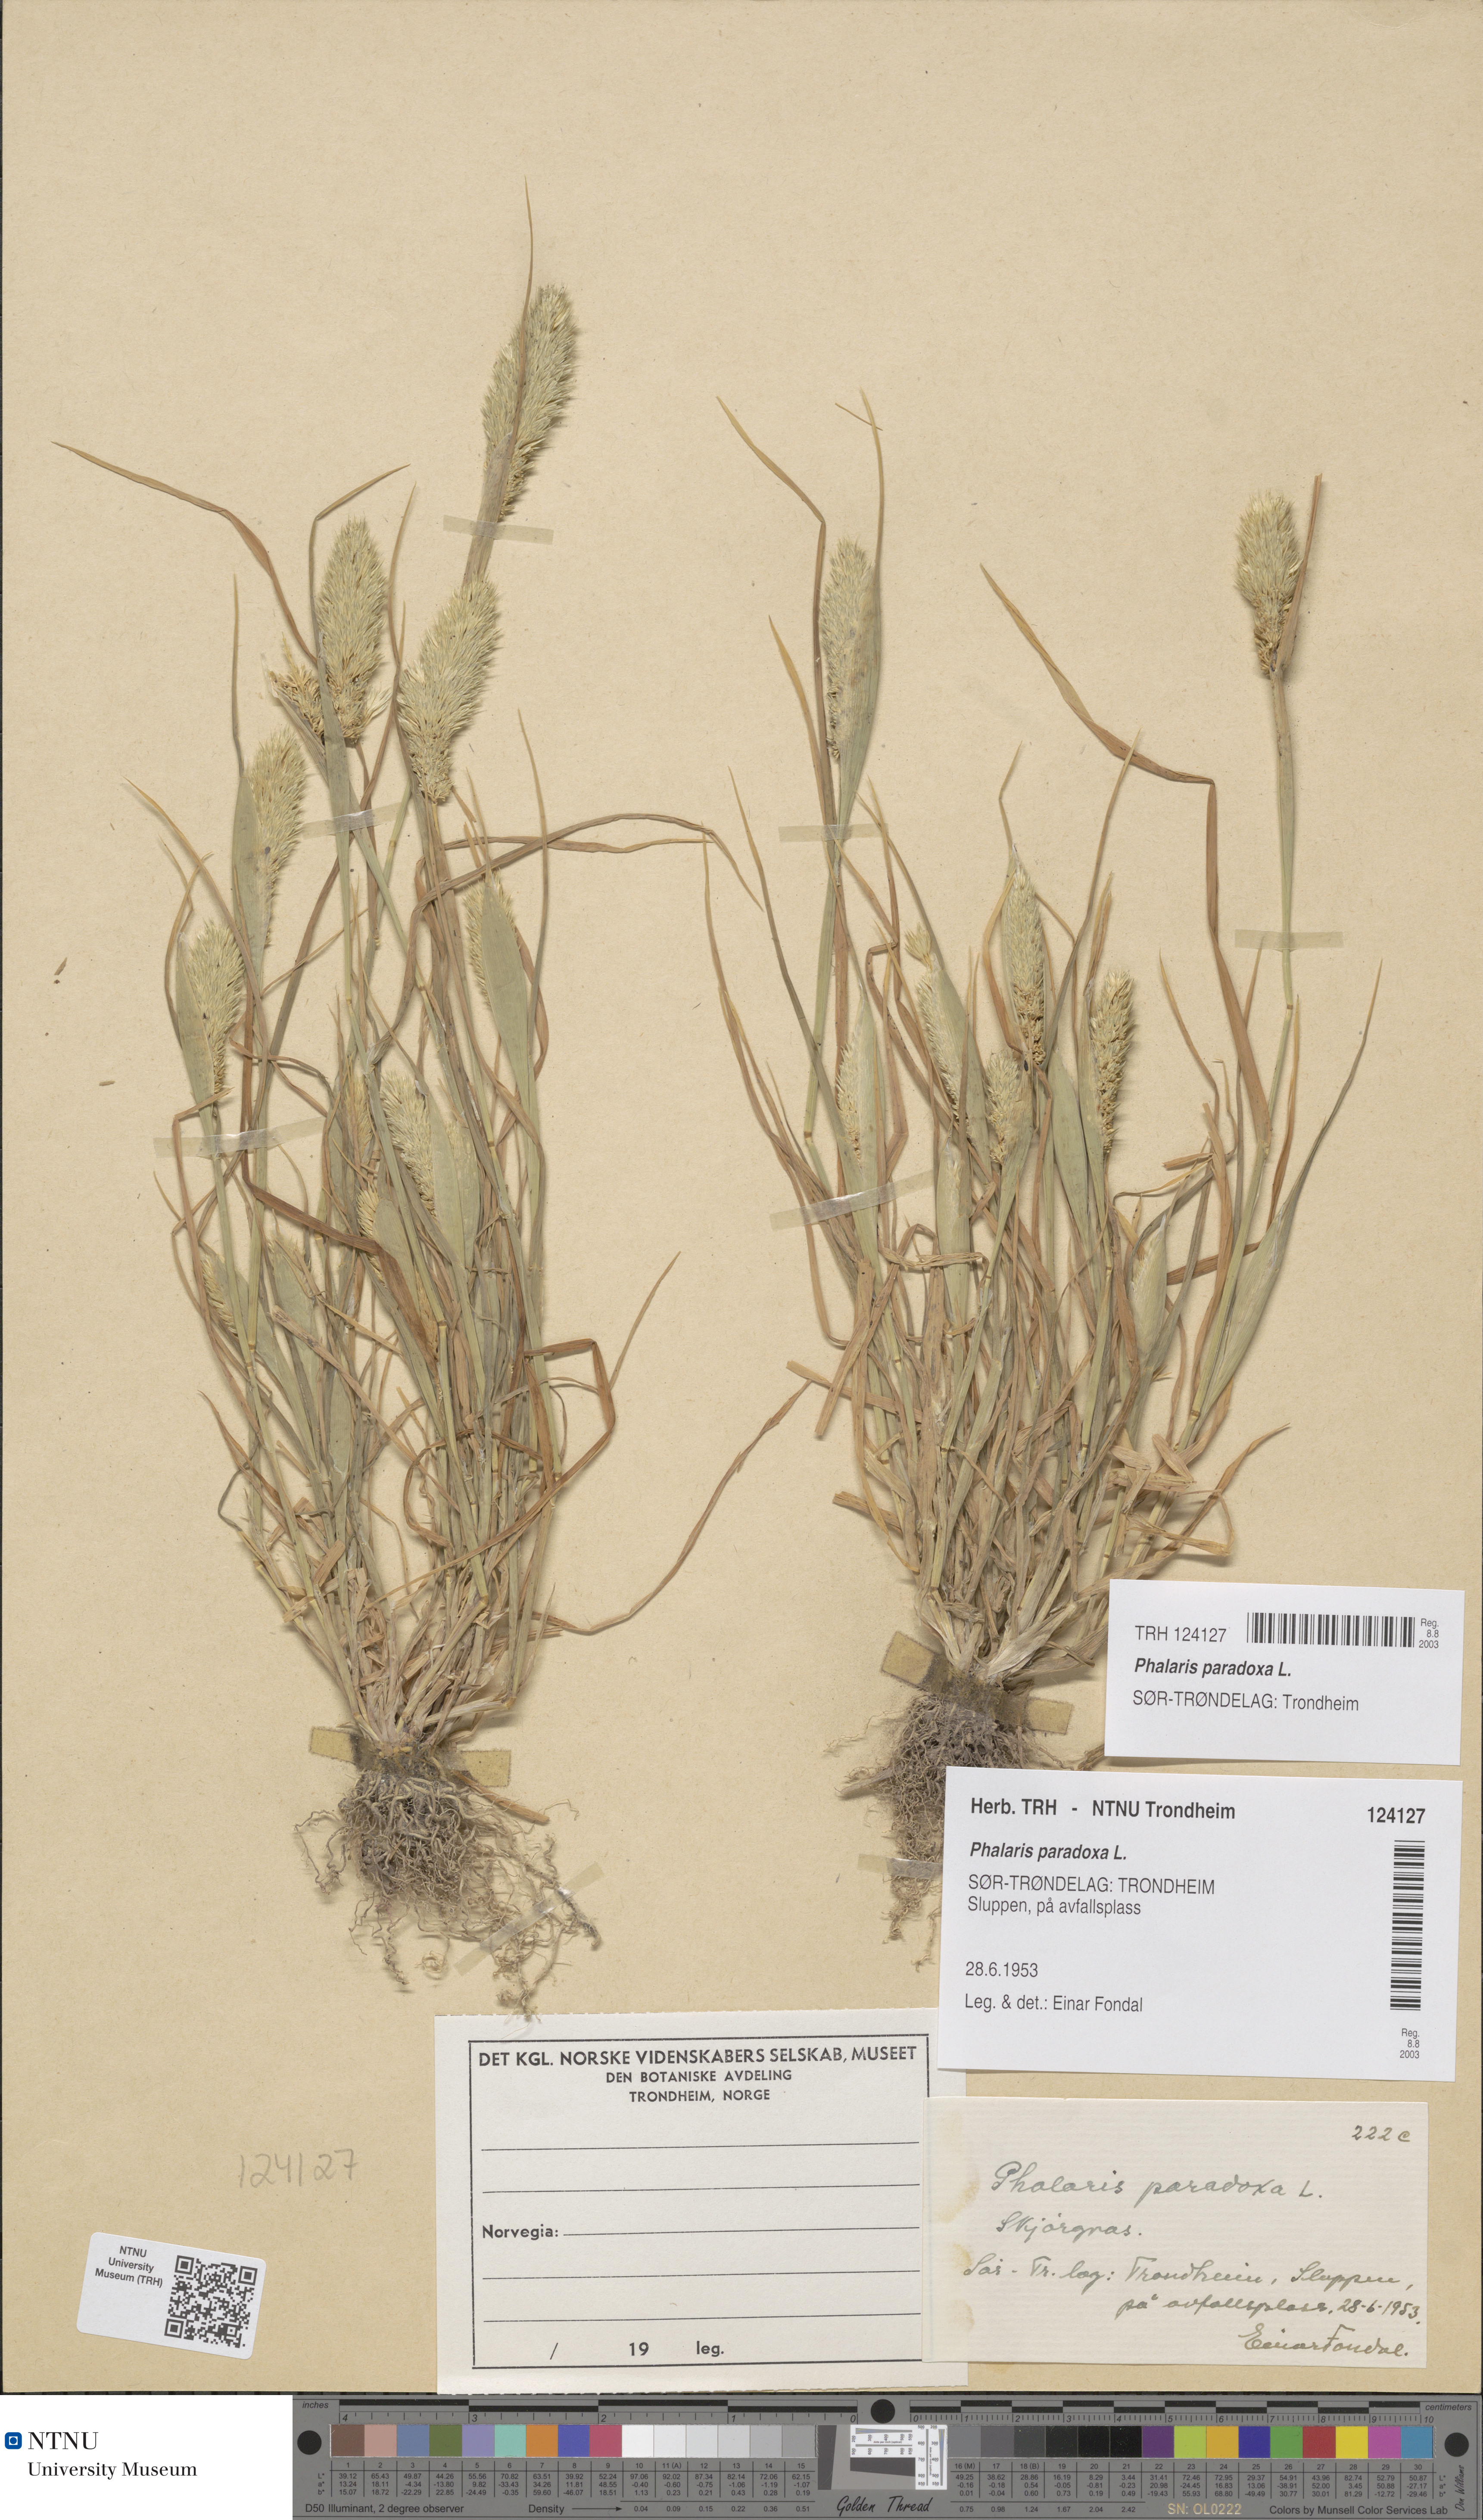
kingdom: Plantae
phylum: Tracheophyta
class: Liliopsida
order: Poales
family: Poaceae
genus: Phalaris
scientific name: Phalaris paradoxa
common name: Awned canary-grass
